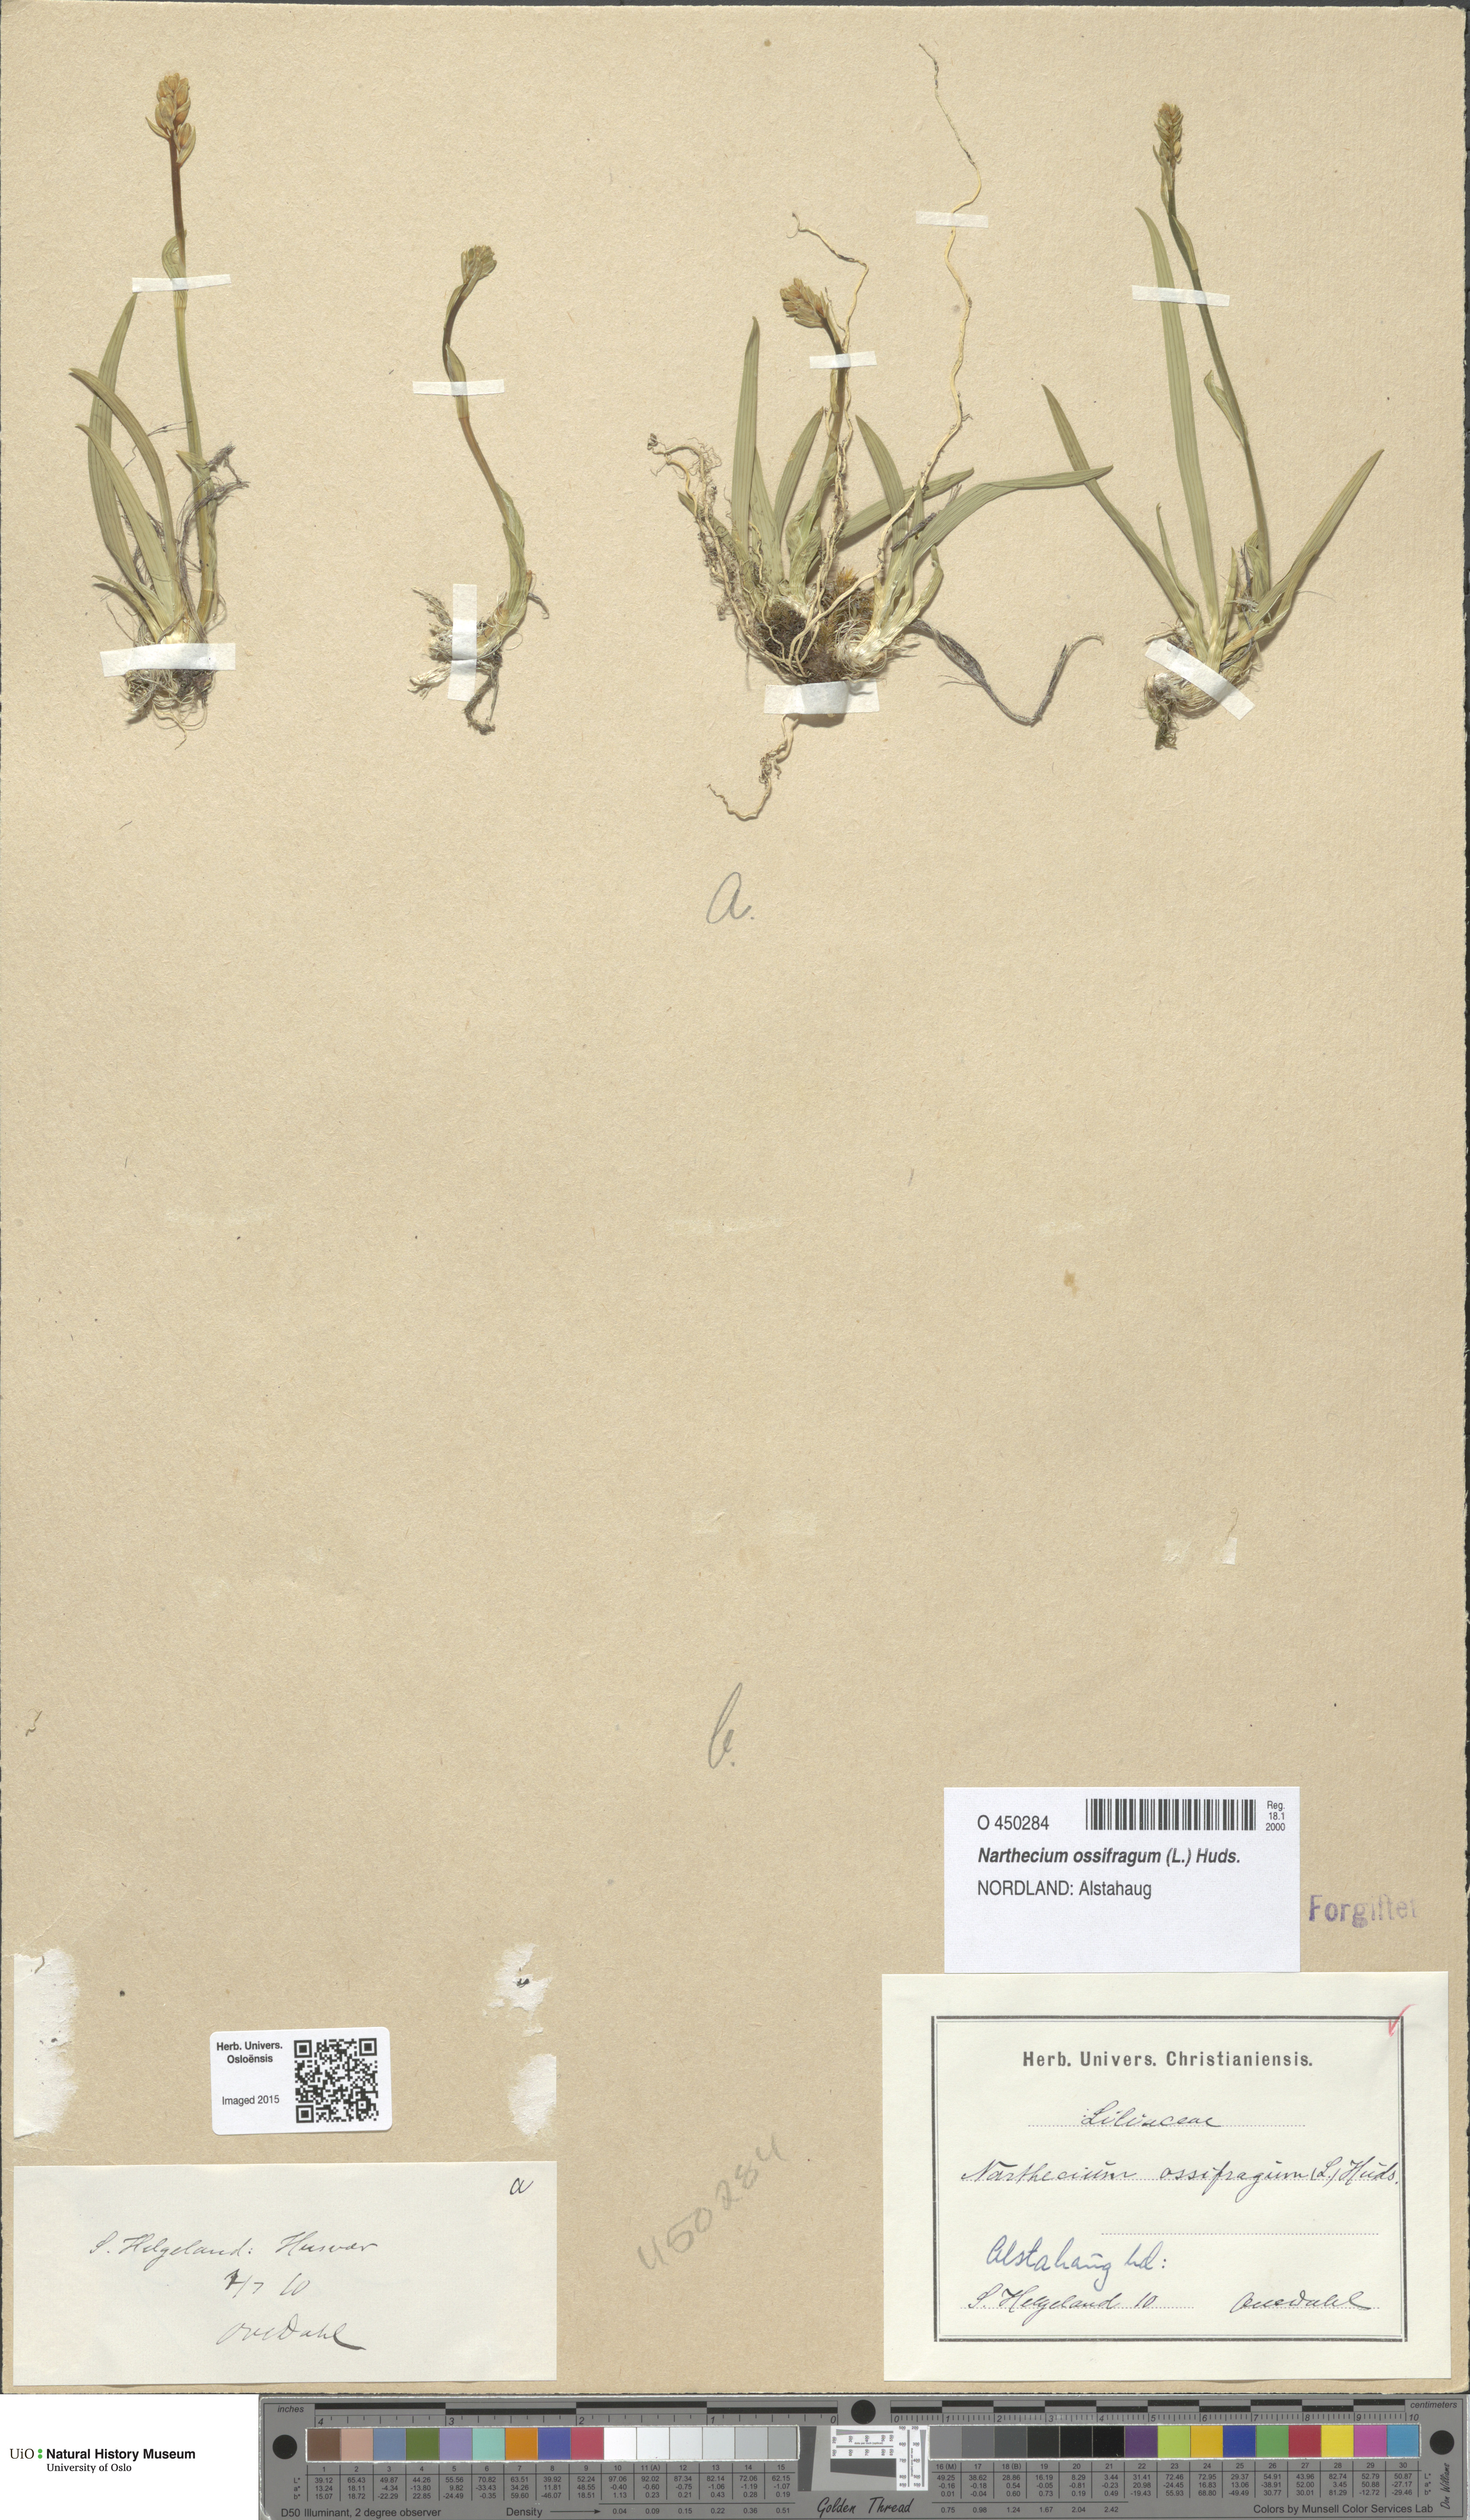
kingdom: Plantae
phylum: Tracheophyta
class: Liliopsida
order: Dioscoreales
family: Nartheciaceae
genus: Narthecium
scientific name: Narthecium ossifragum
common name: Bog asphodel
